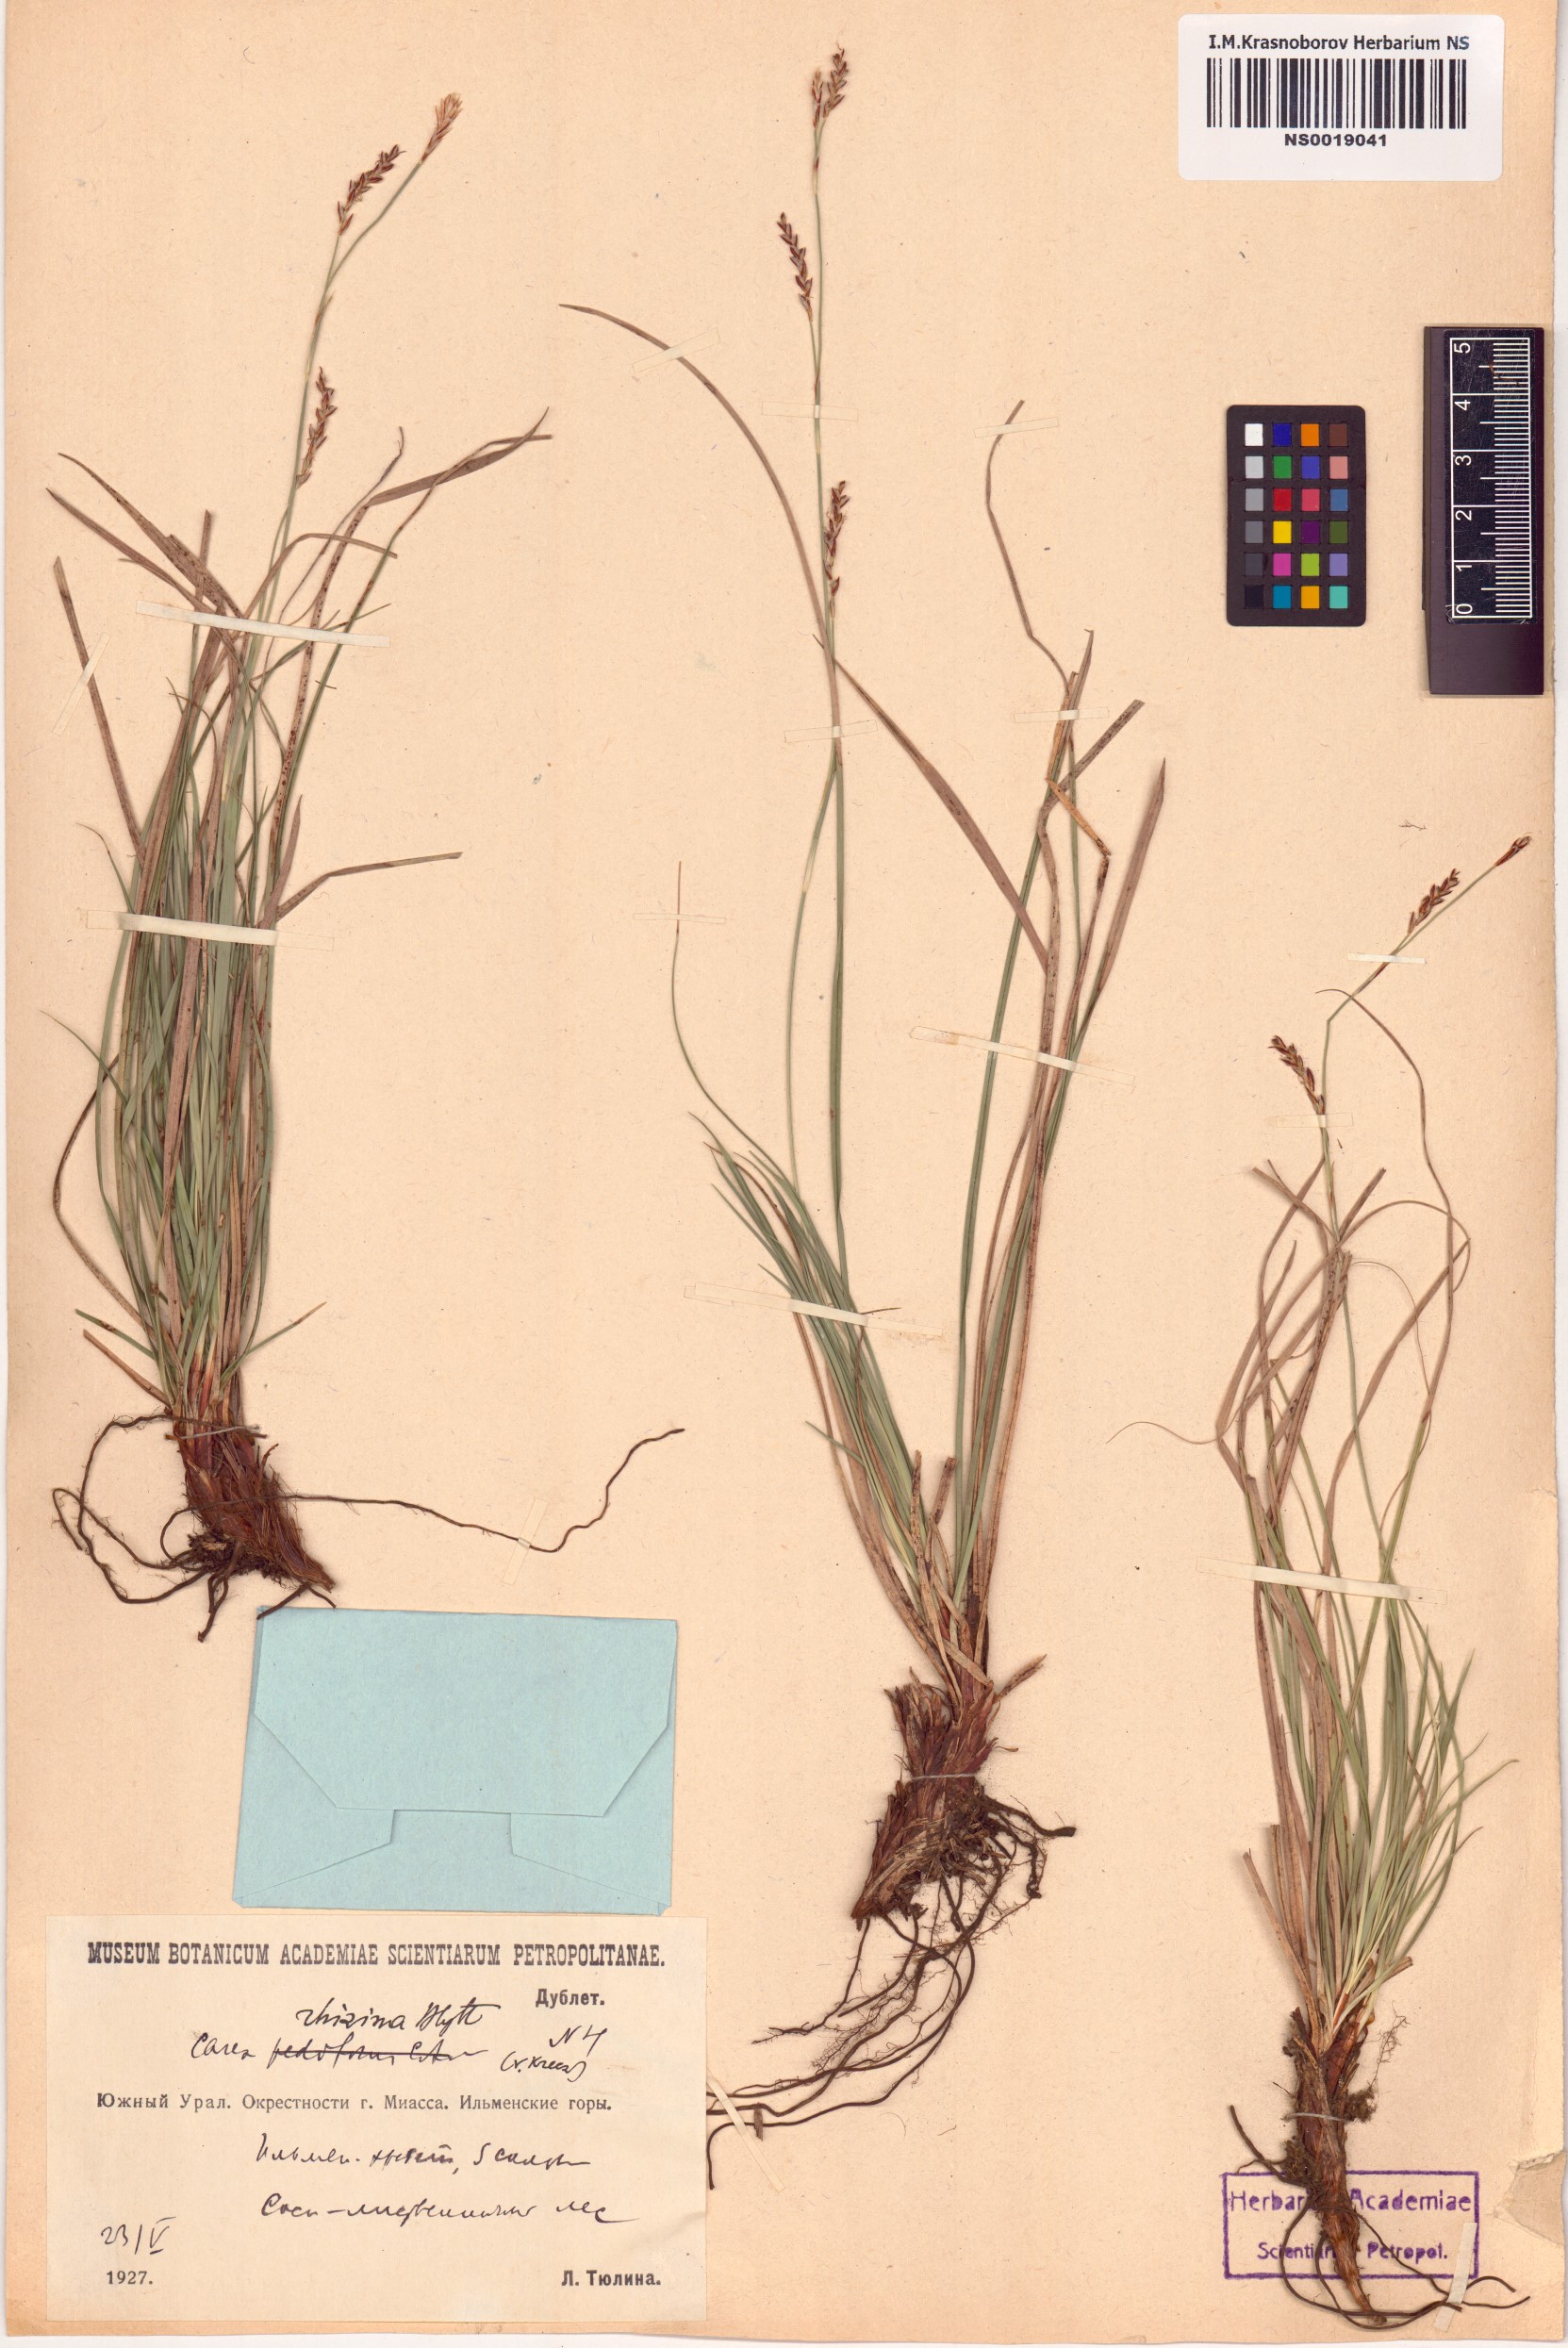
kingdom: Plantae
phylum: Tracheophyta
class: Liliopsida
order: Poales
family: Cyperaceae
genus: Carex
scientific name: Carex rhizina
